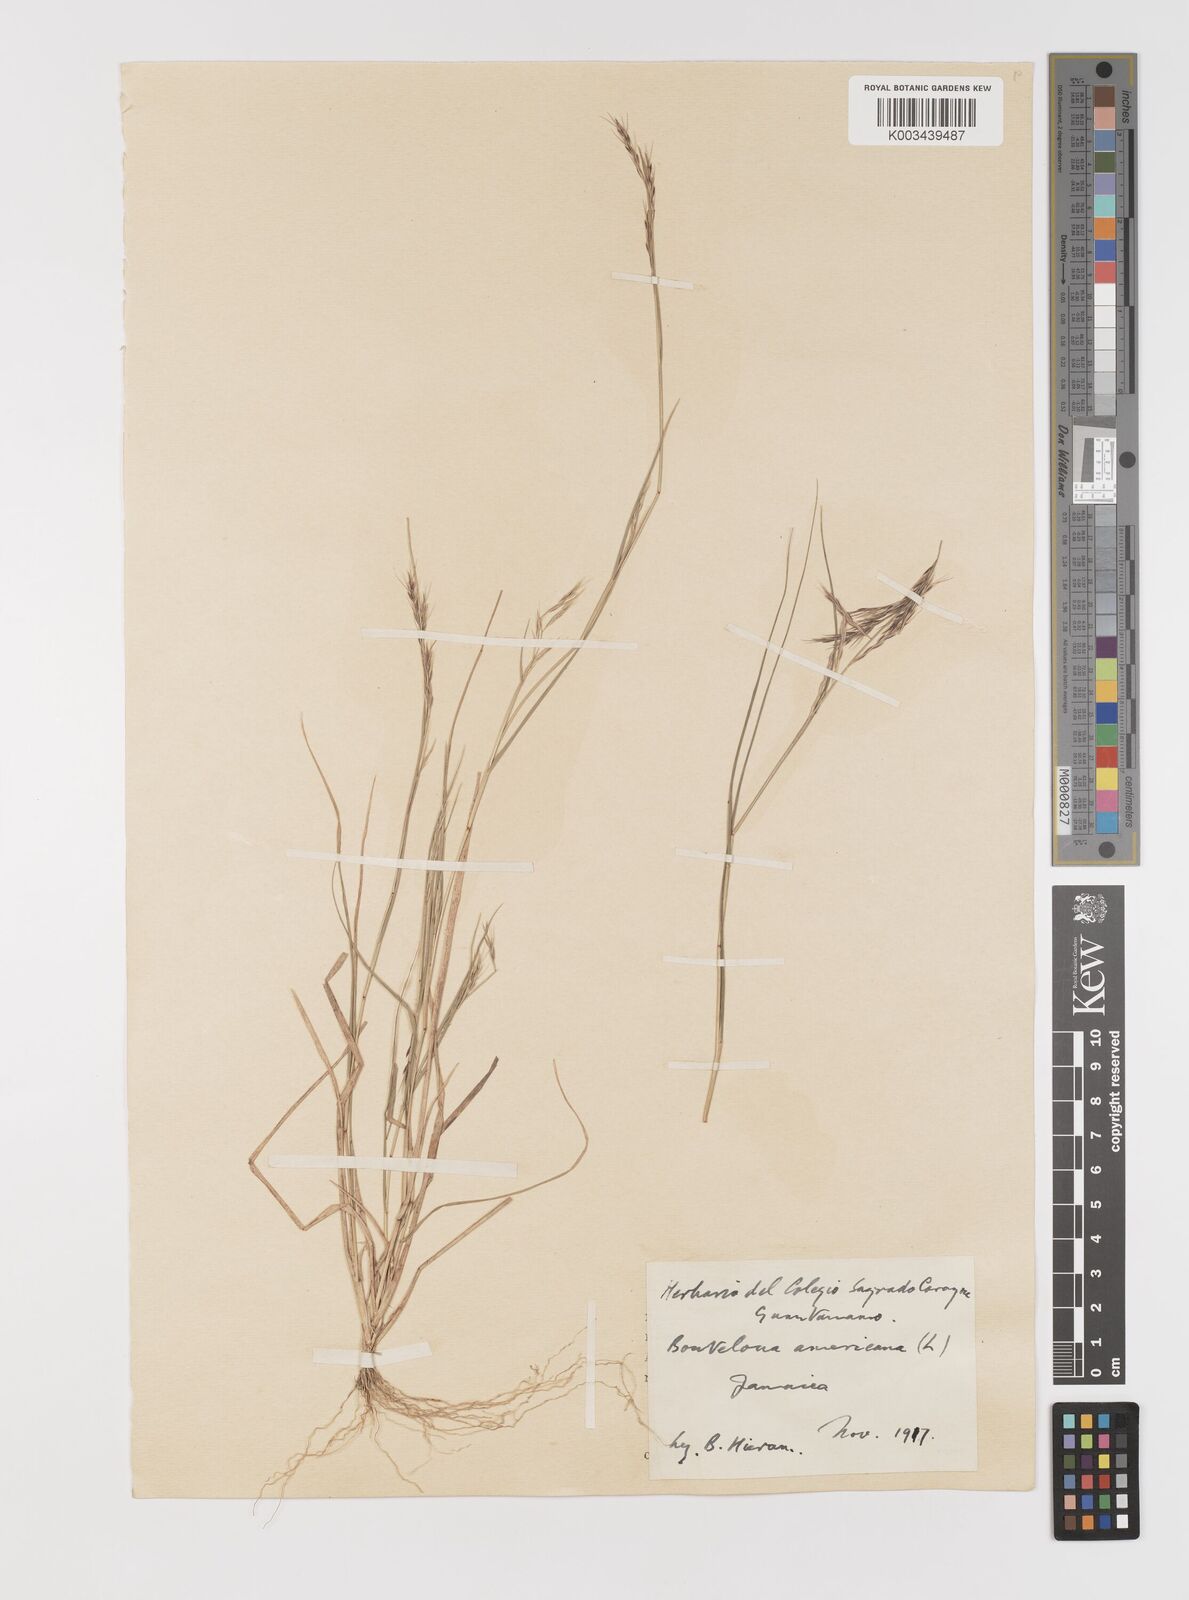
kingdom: Plantae
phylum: Tracheophyta
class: Liliopsida
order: Poales
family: Poaceae
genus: Bouteloua
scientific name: Bouteloua americana
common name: Mule grass
